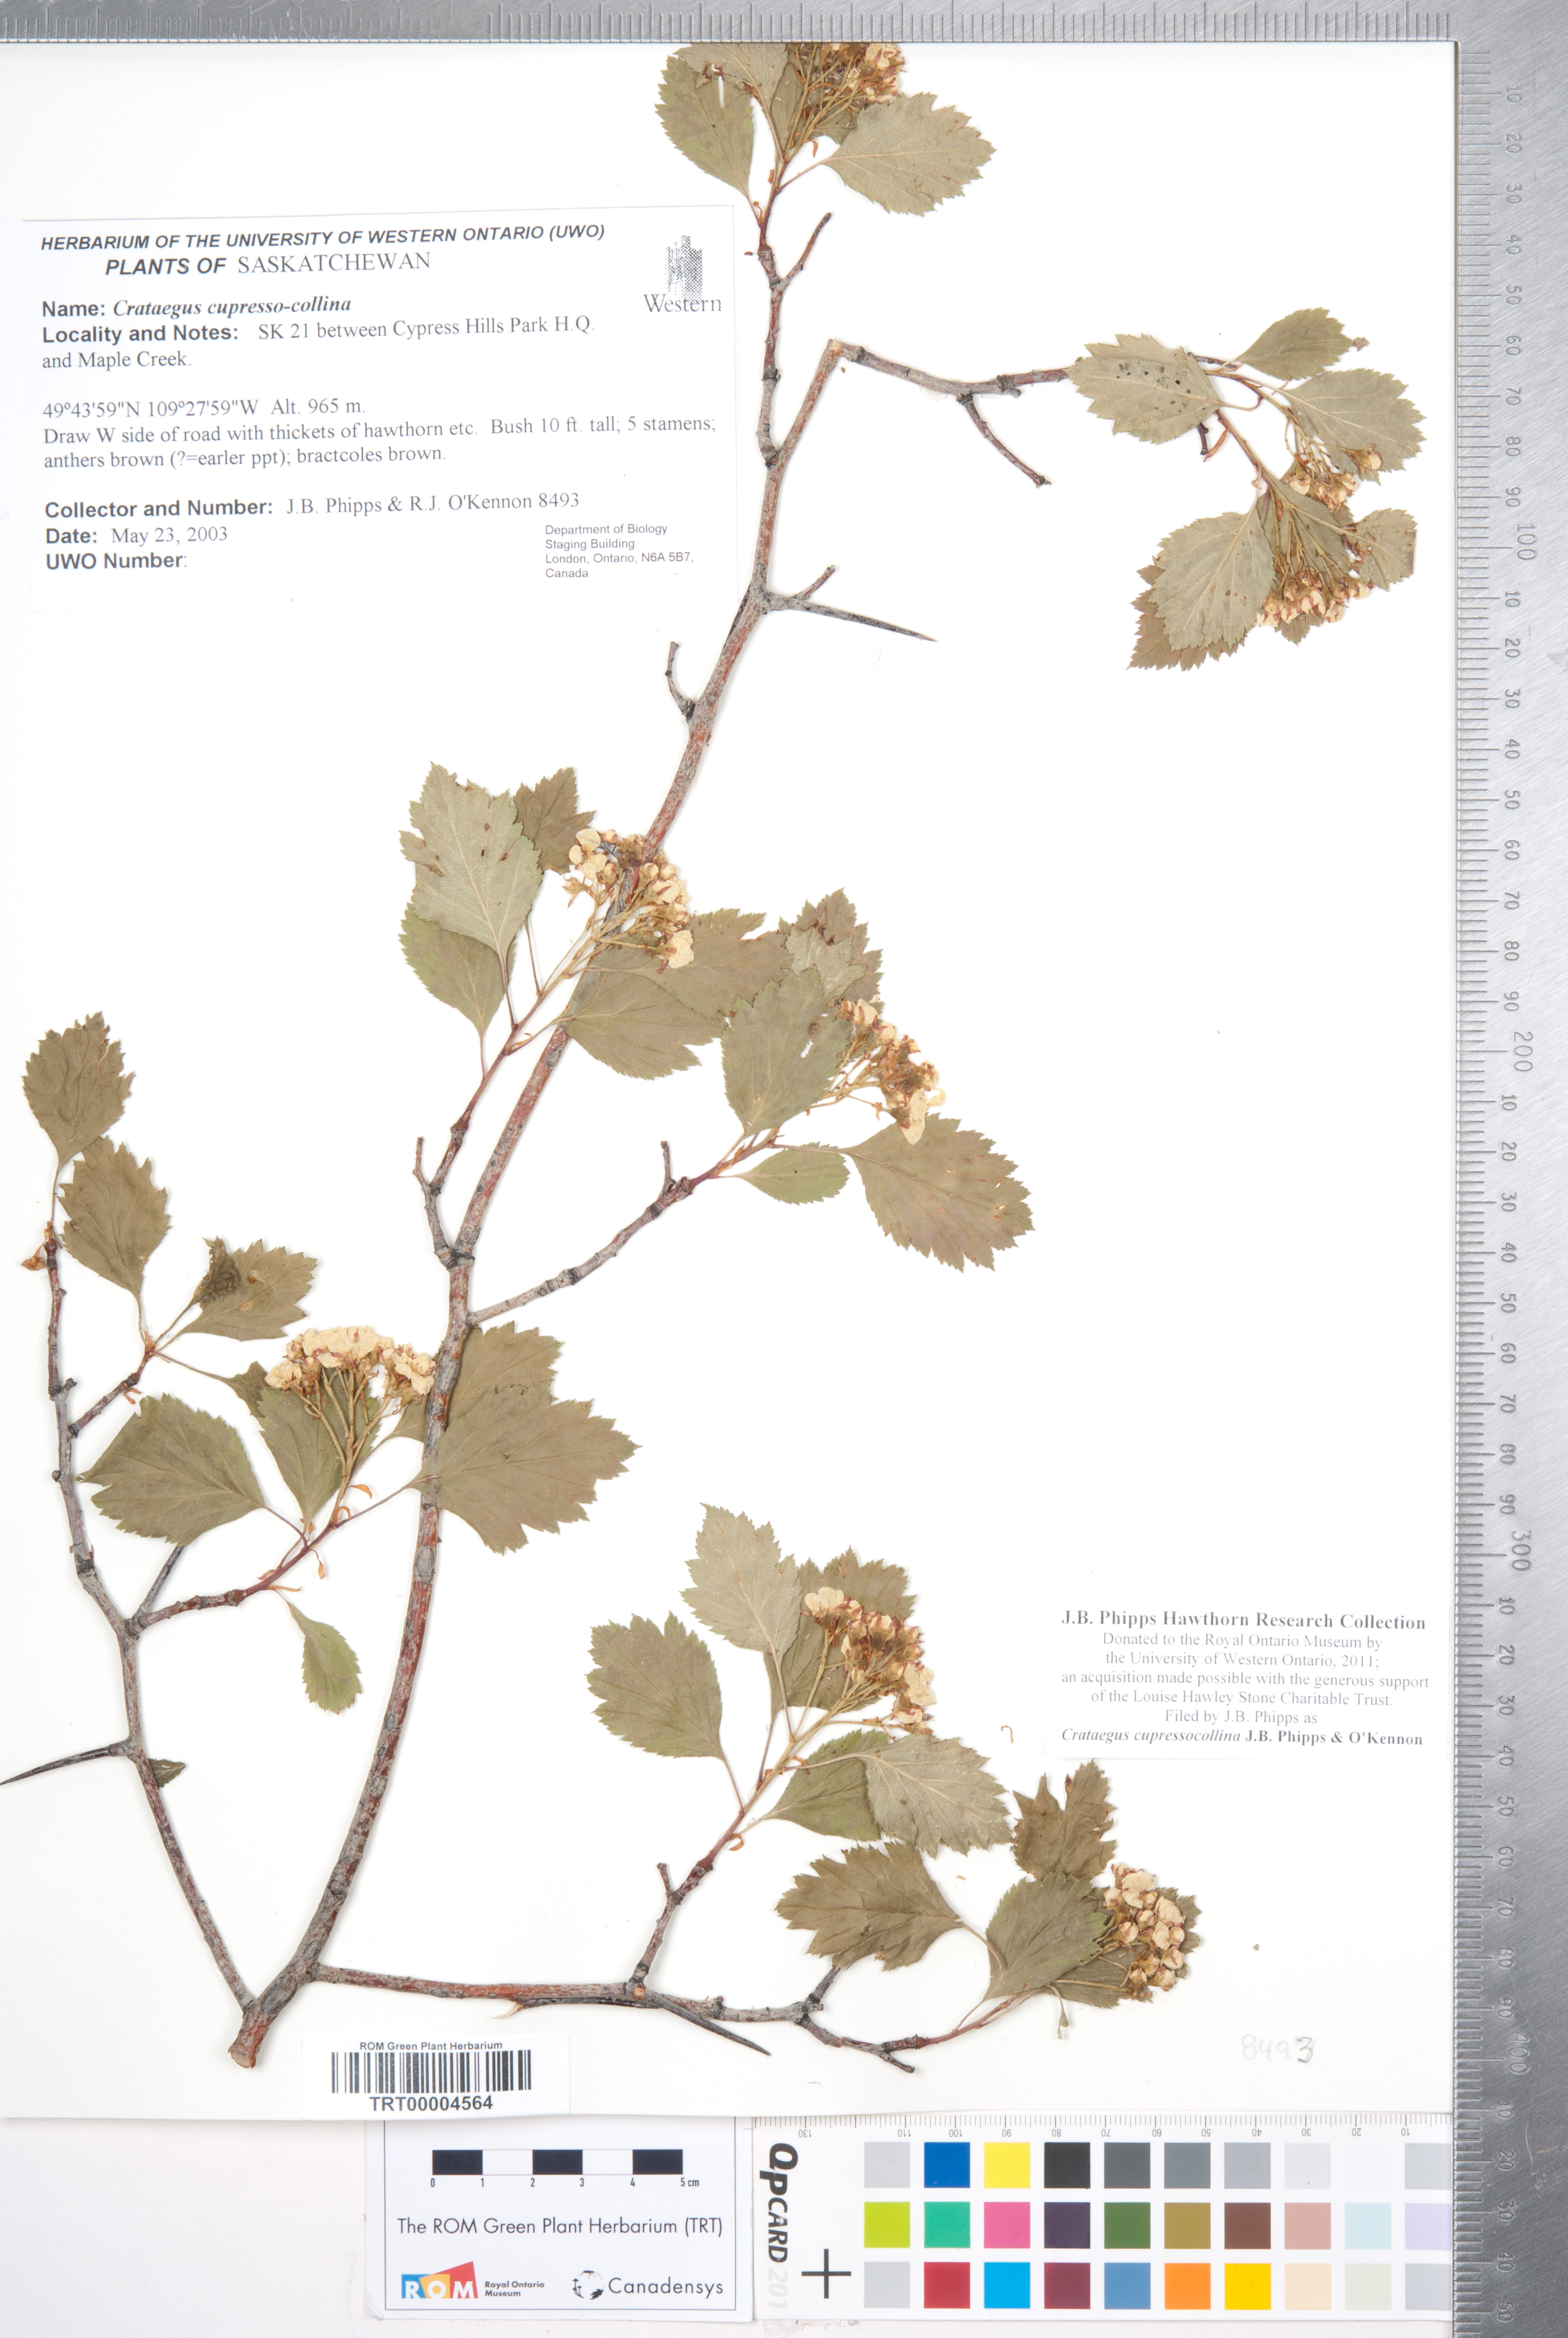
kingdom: Plantae
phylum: Tracheophyta
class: Magnoliopsida
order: Rosales
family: Rosaceae
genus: Crataegus
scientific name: Crataegus cupressocollina
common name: Cypress hills hawthorn
